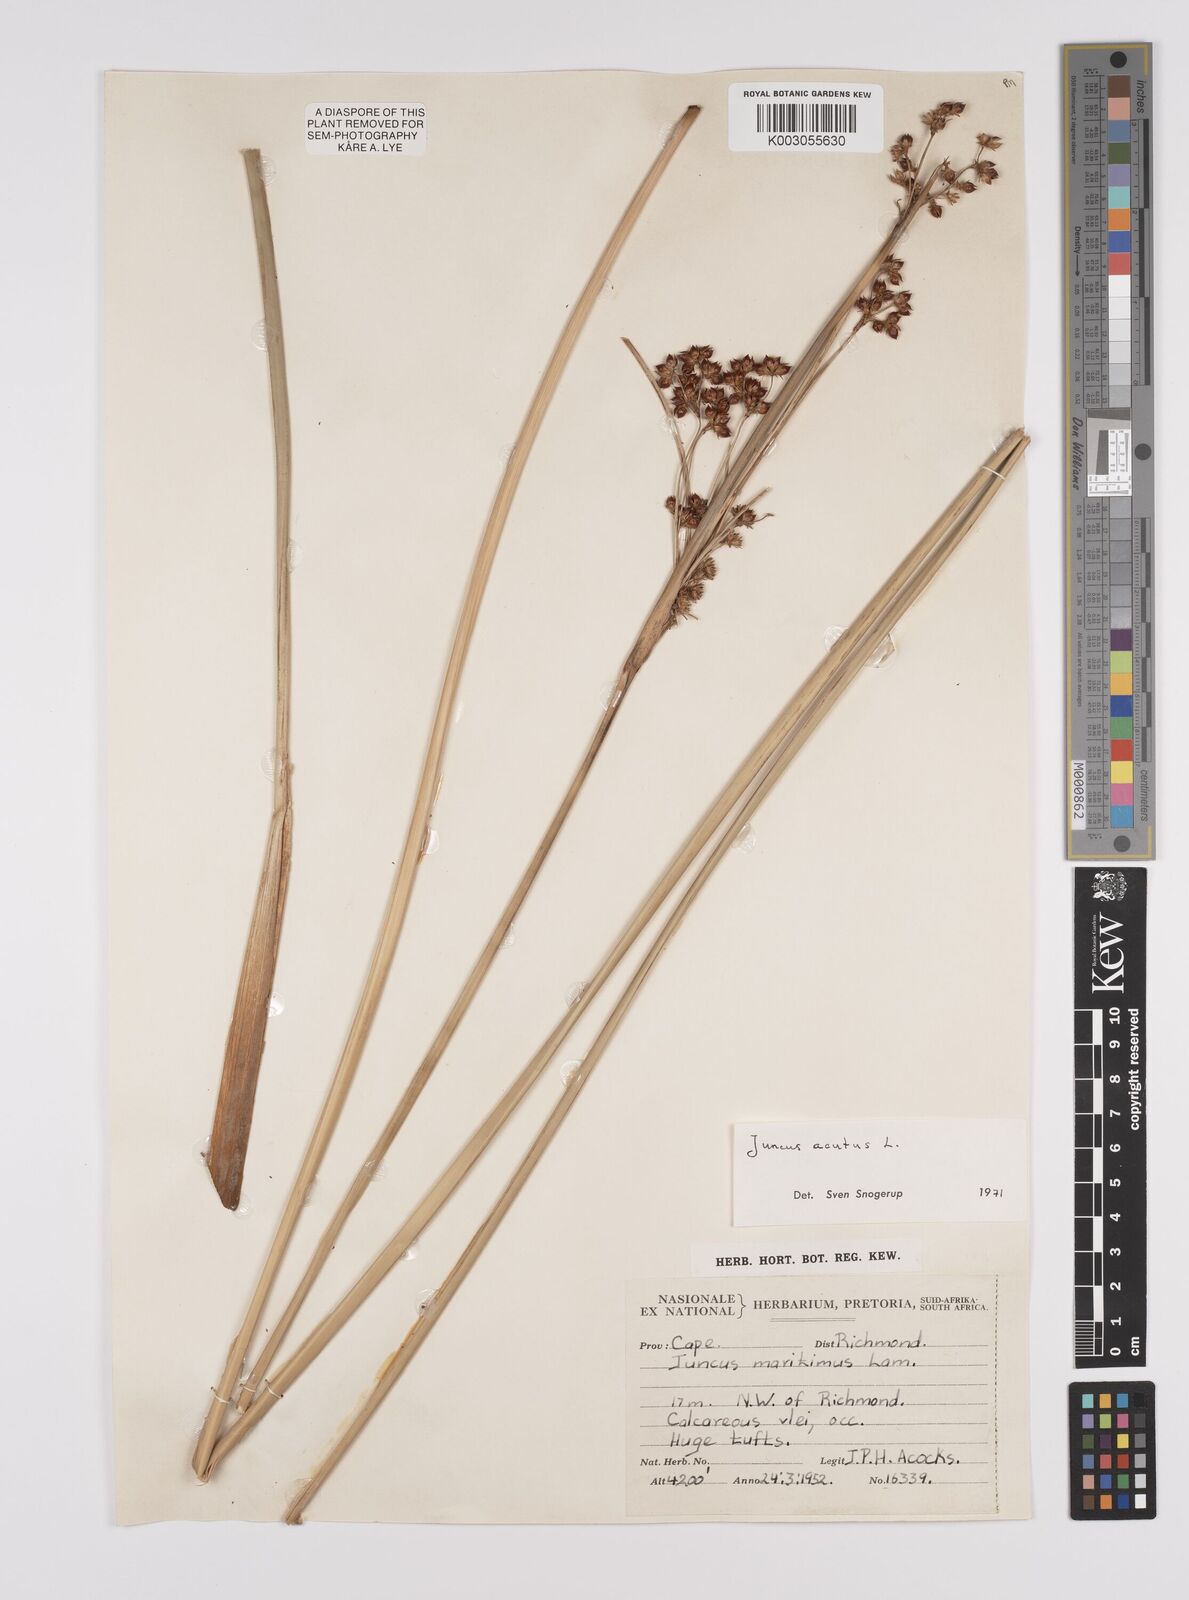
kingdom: Plantae
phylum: Tracheophyta
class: Liliopsida
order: Poales
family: Juncaceae
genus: Juncus
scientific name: Juncus acutus
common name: Sharp rush
